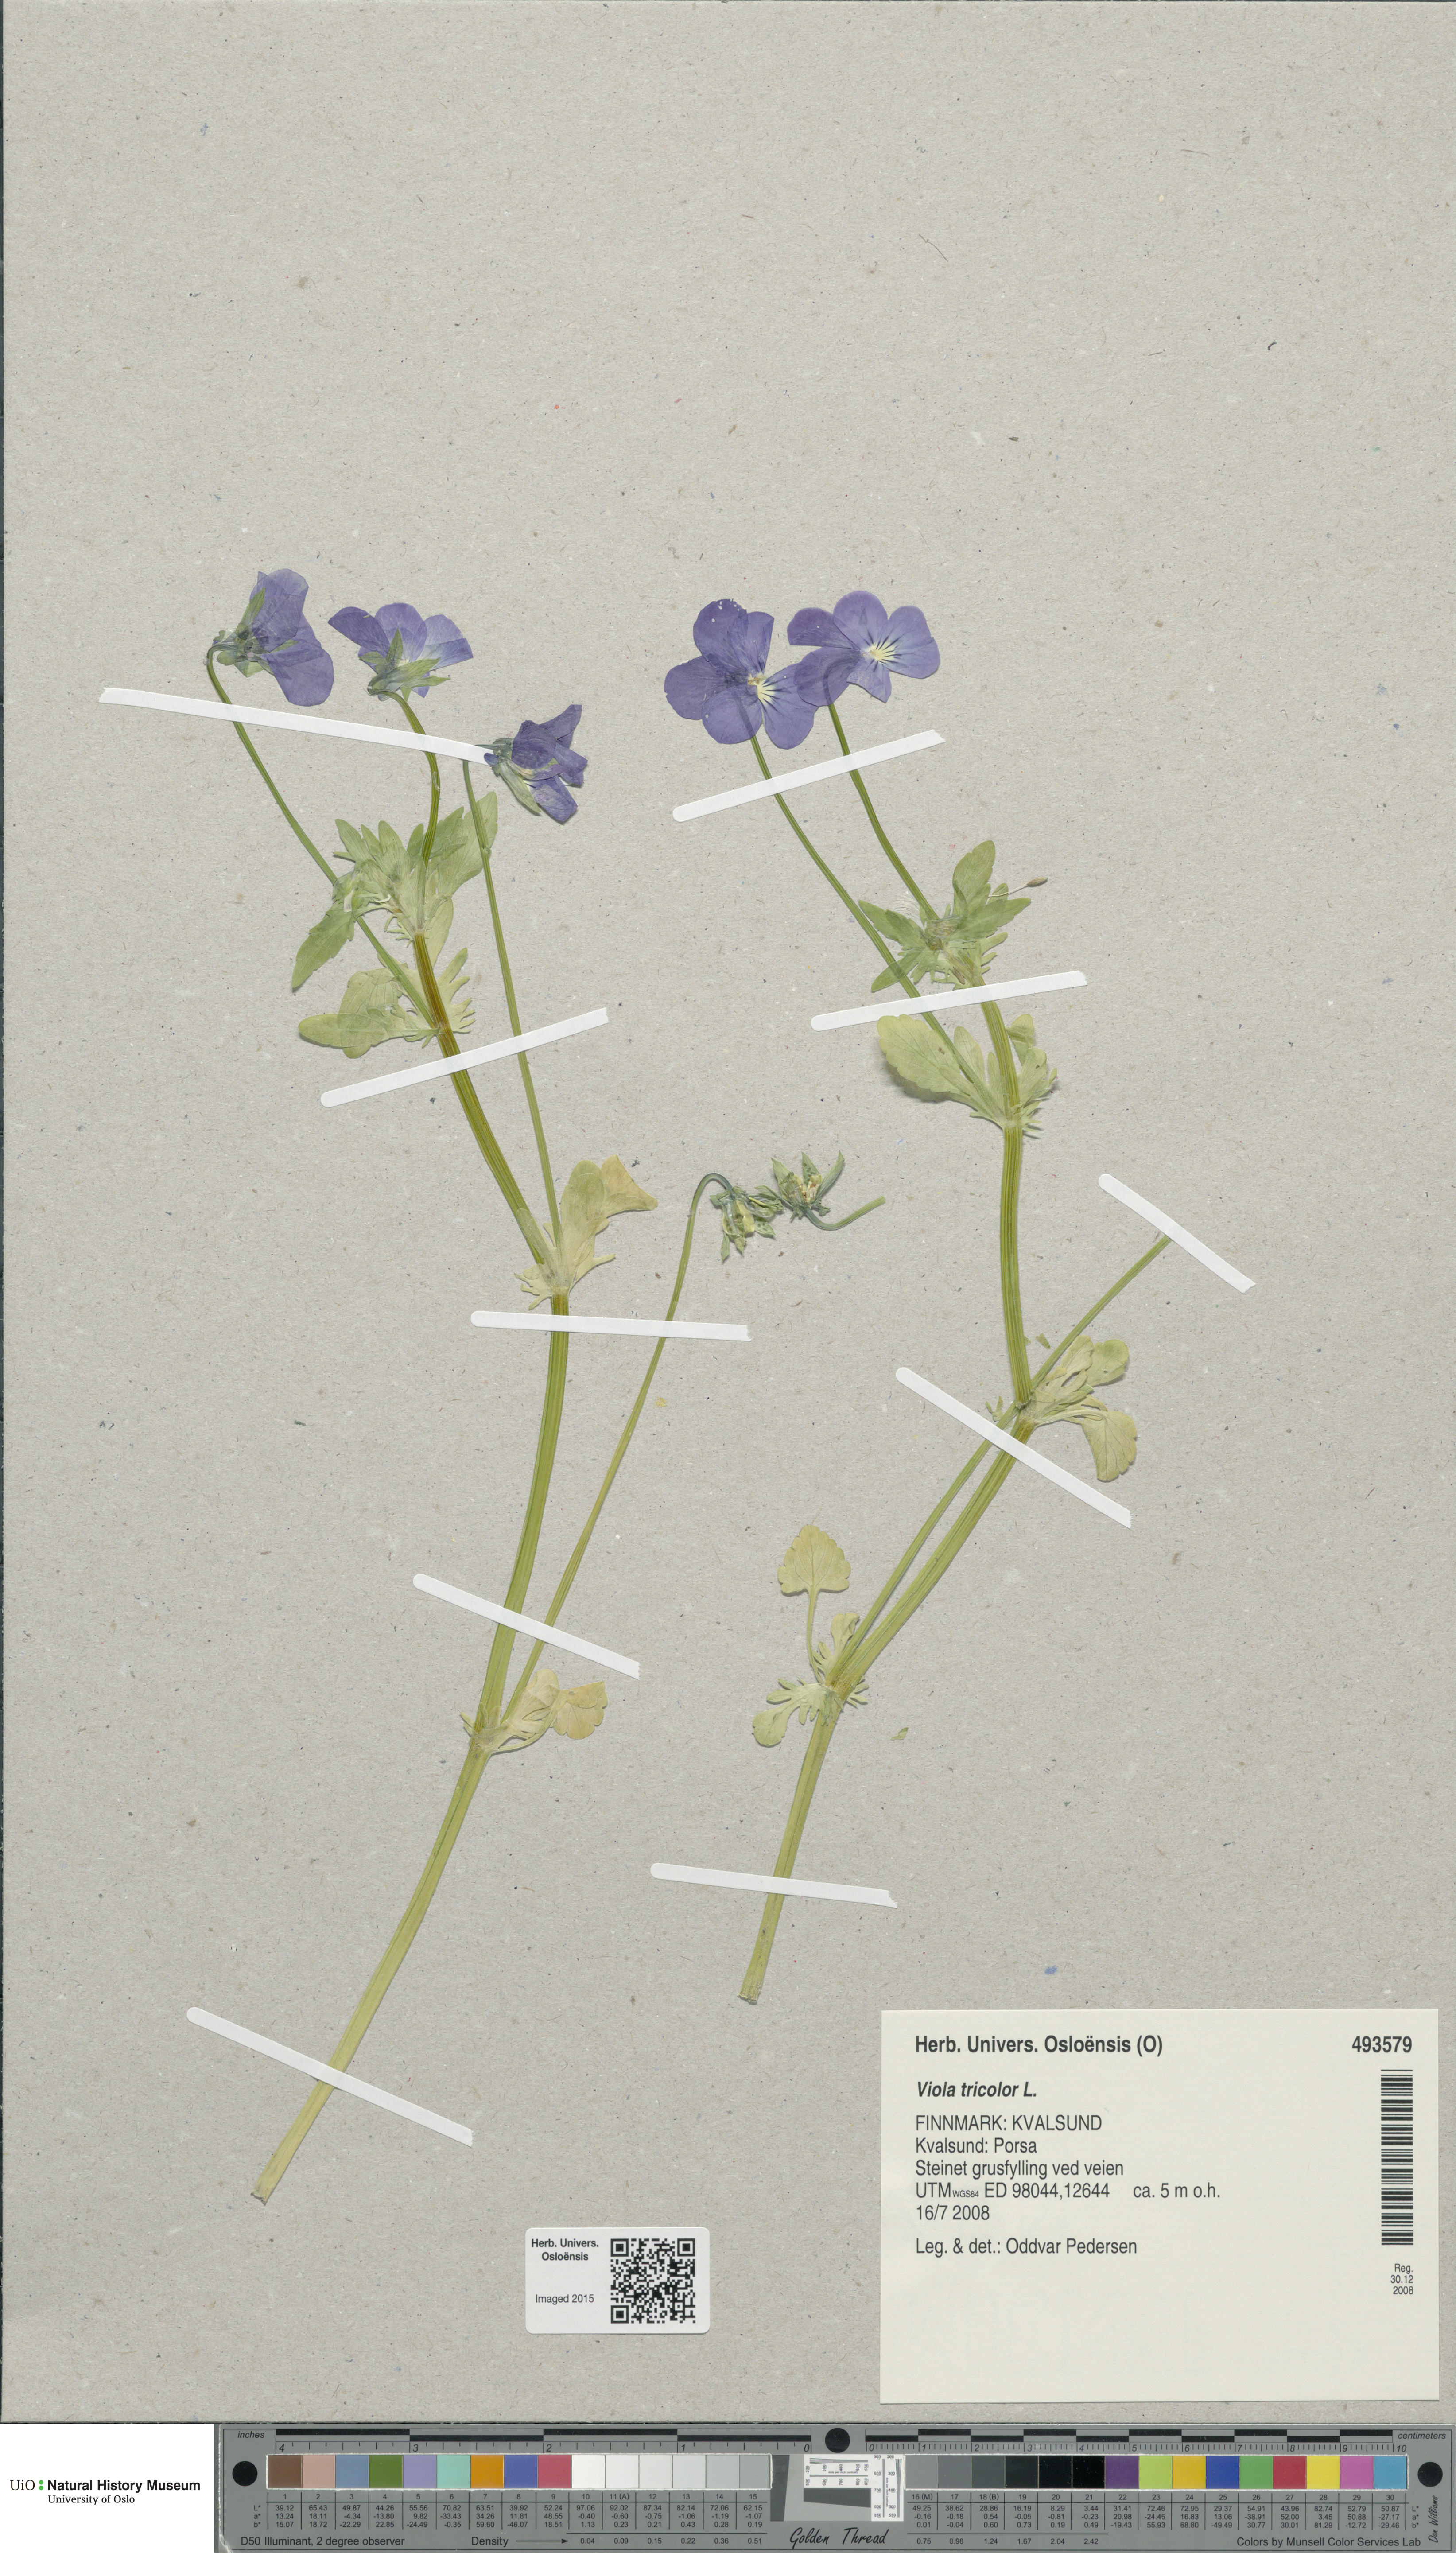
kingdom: Plantae
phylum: Tracheophyta
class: Magnoliopsida
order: Malpighiales
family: Violaceae
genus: Viola
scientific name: Viola tricolor
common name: Pansy
